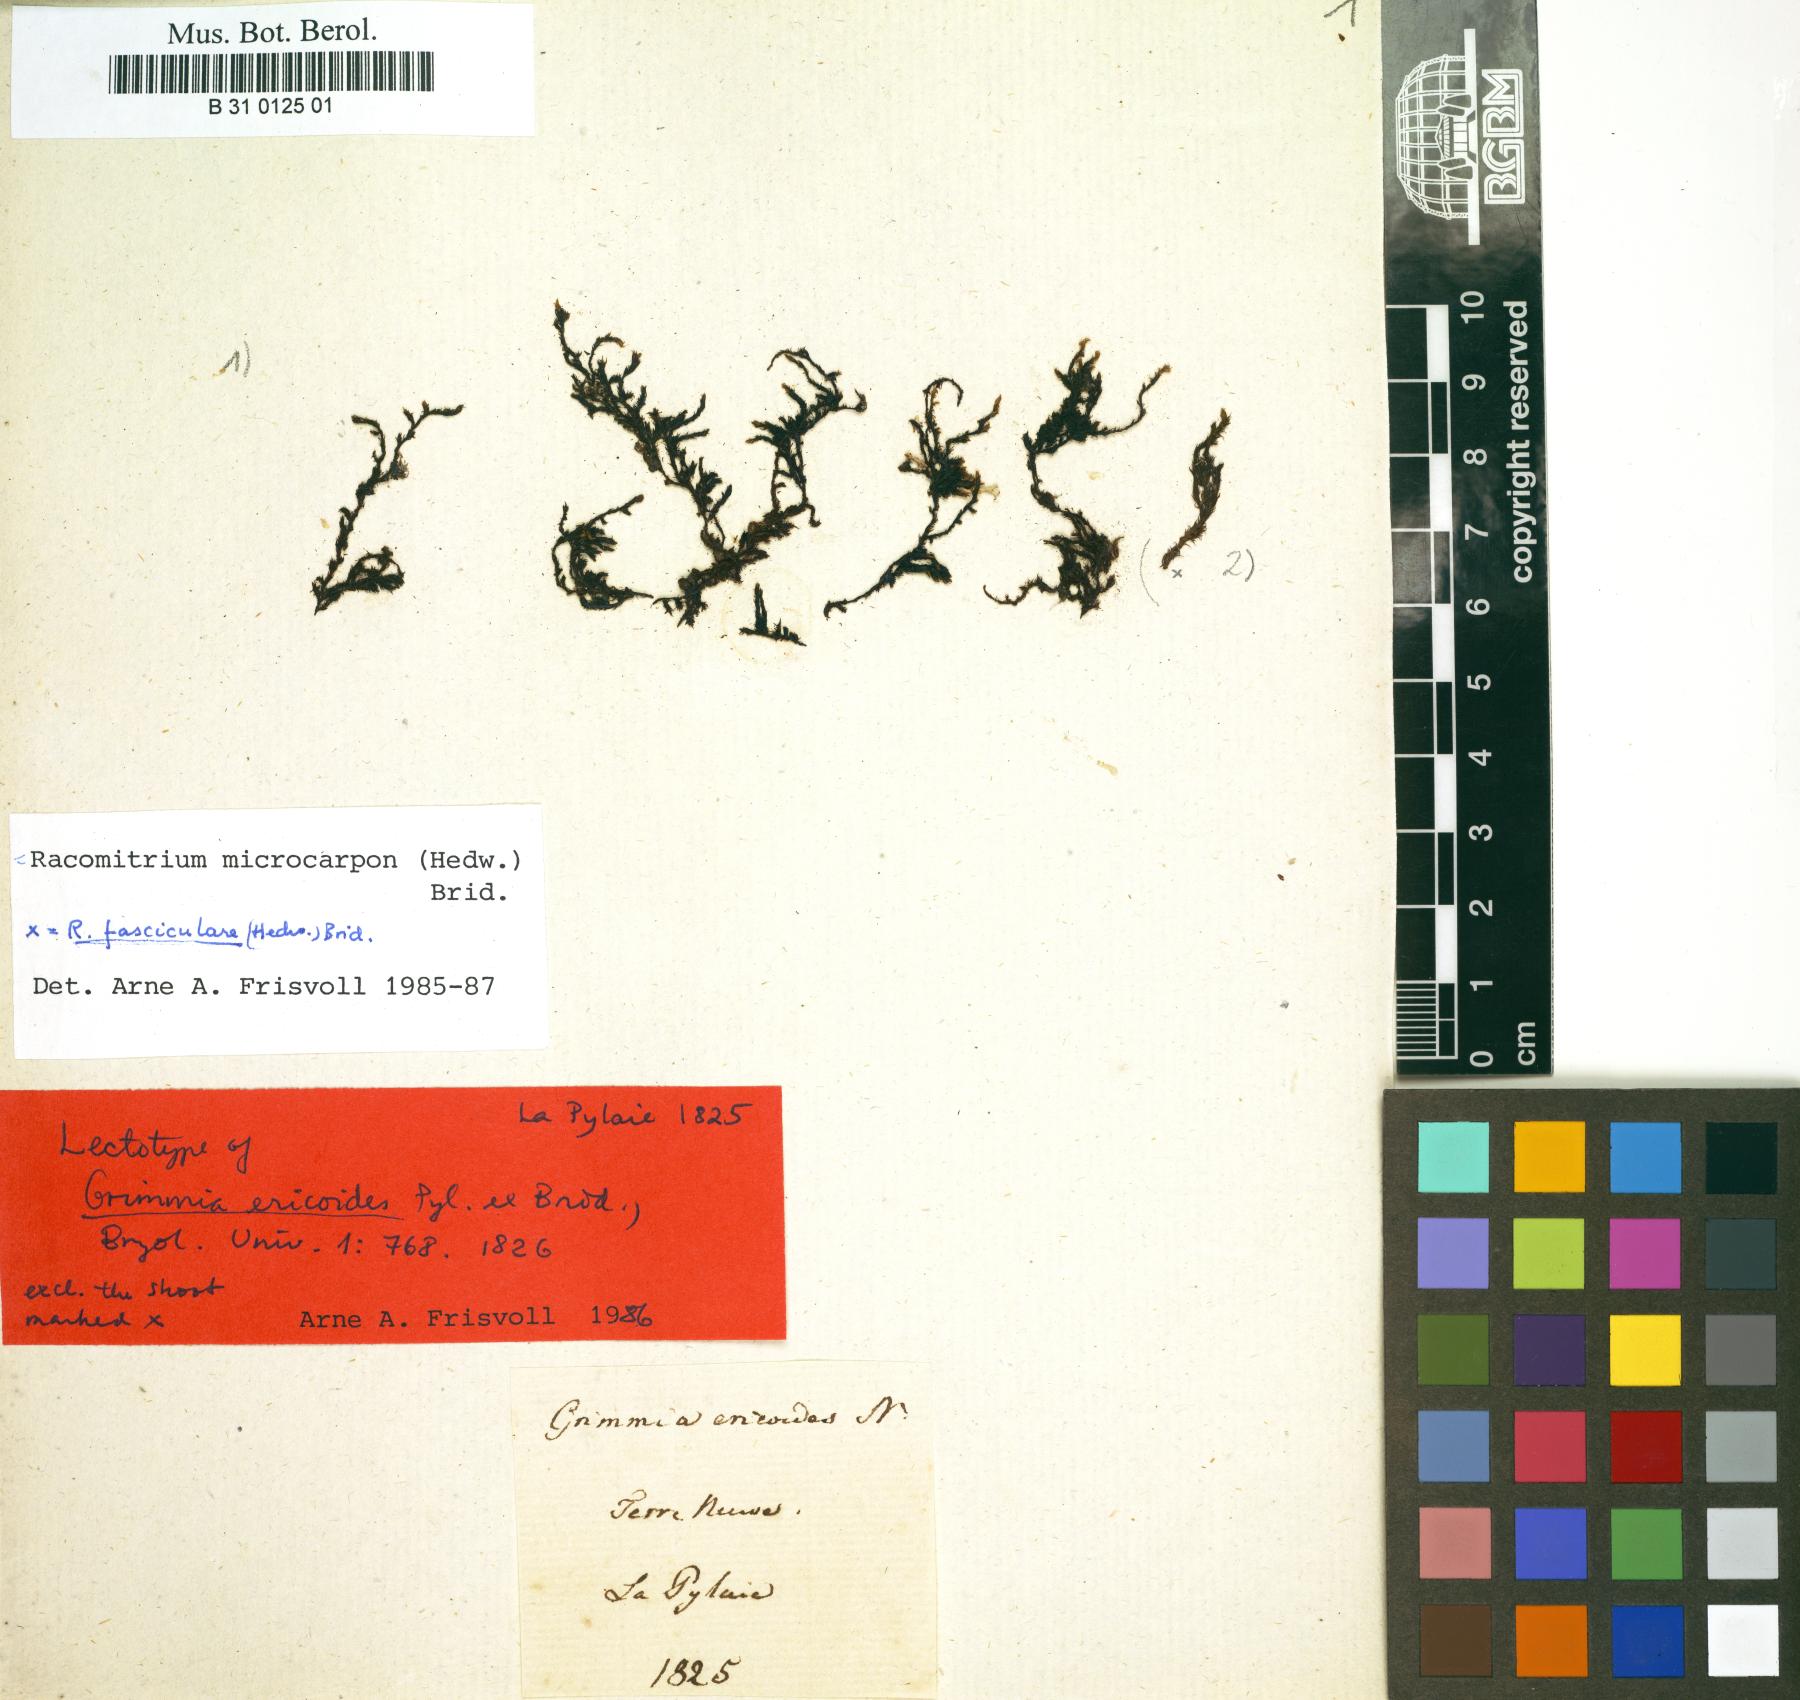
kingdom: Plantae
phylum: Bryophyta
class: Bryopsida
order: Grimmiales
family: Grimmiaceae
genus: Dilutineuron
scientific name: Dilutineuron fasciculare
